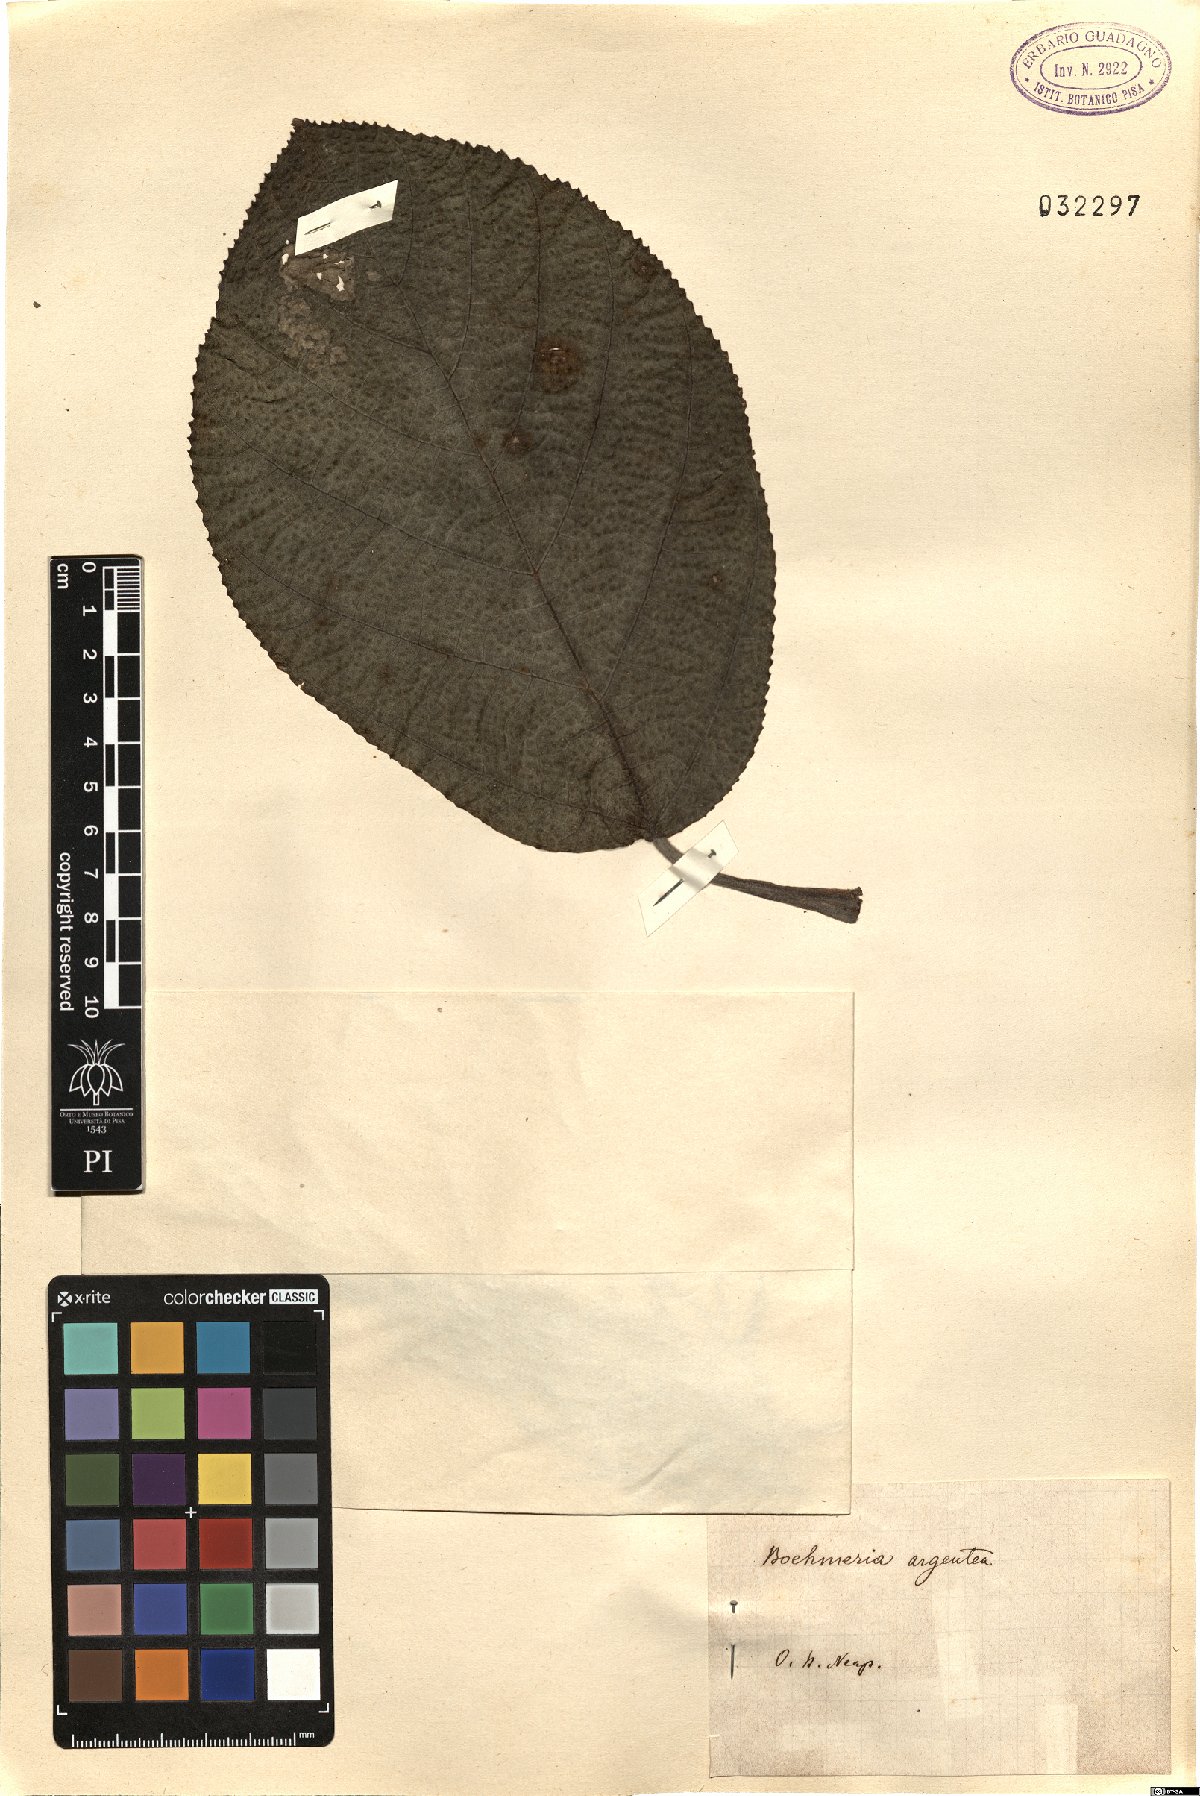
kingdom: Plantae
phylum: Tracheophyta
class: Magnoliopsida
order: Rosales
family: Urticaceae
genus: Pipturus
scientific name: Pipturus argenteus
